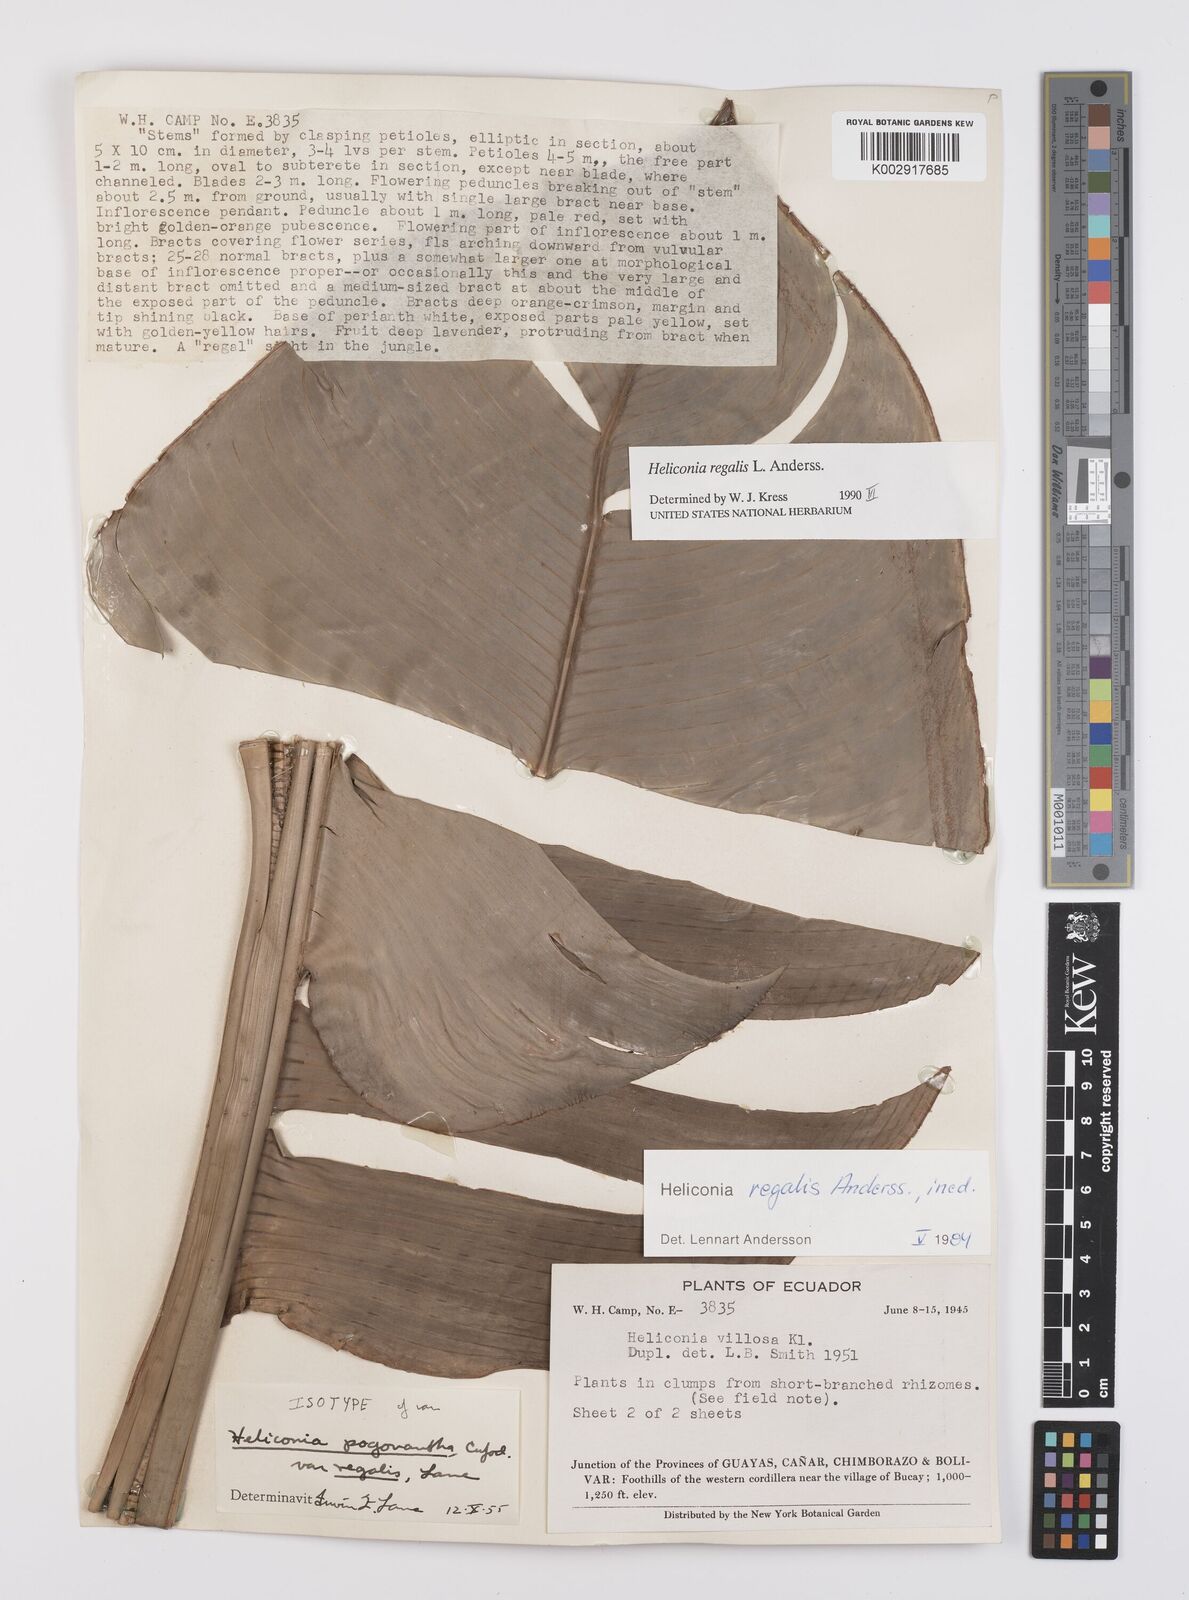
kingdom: Plantae
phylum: Tracheophyta
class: Liliopsida
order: Zingiberales
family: Heliconiaceae
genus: Heliconia
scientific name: Heliconia regalis
